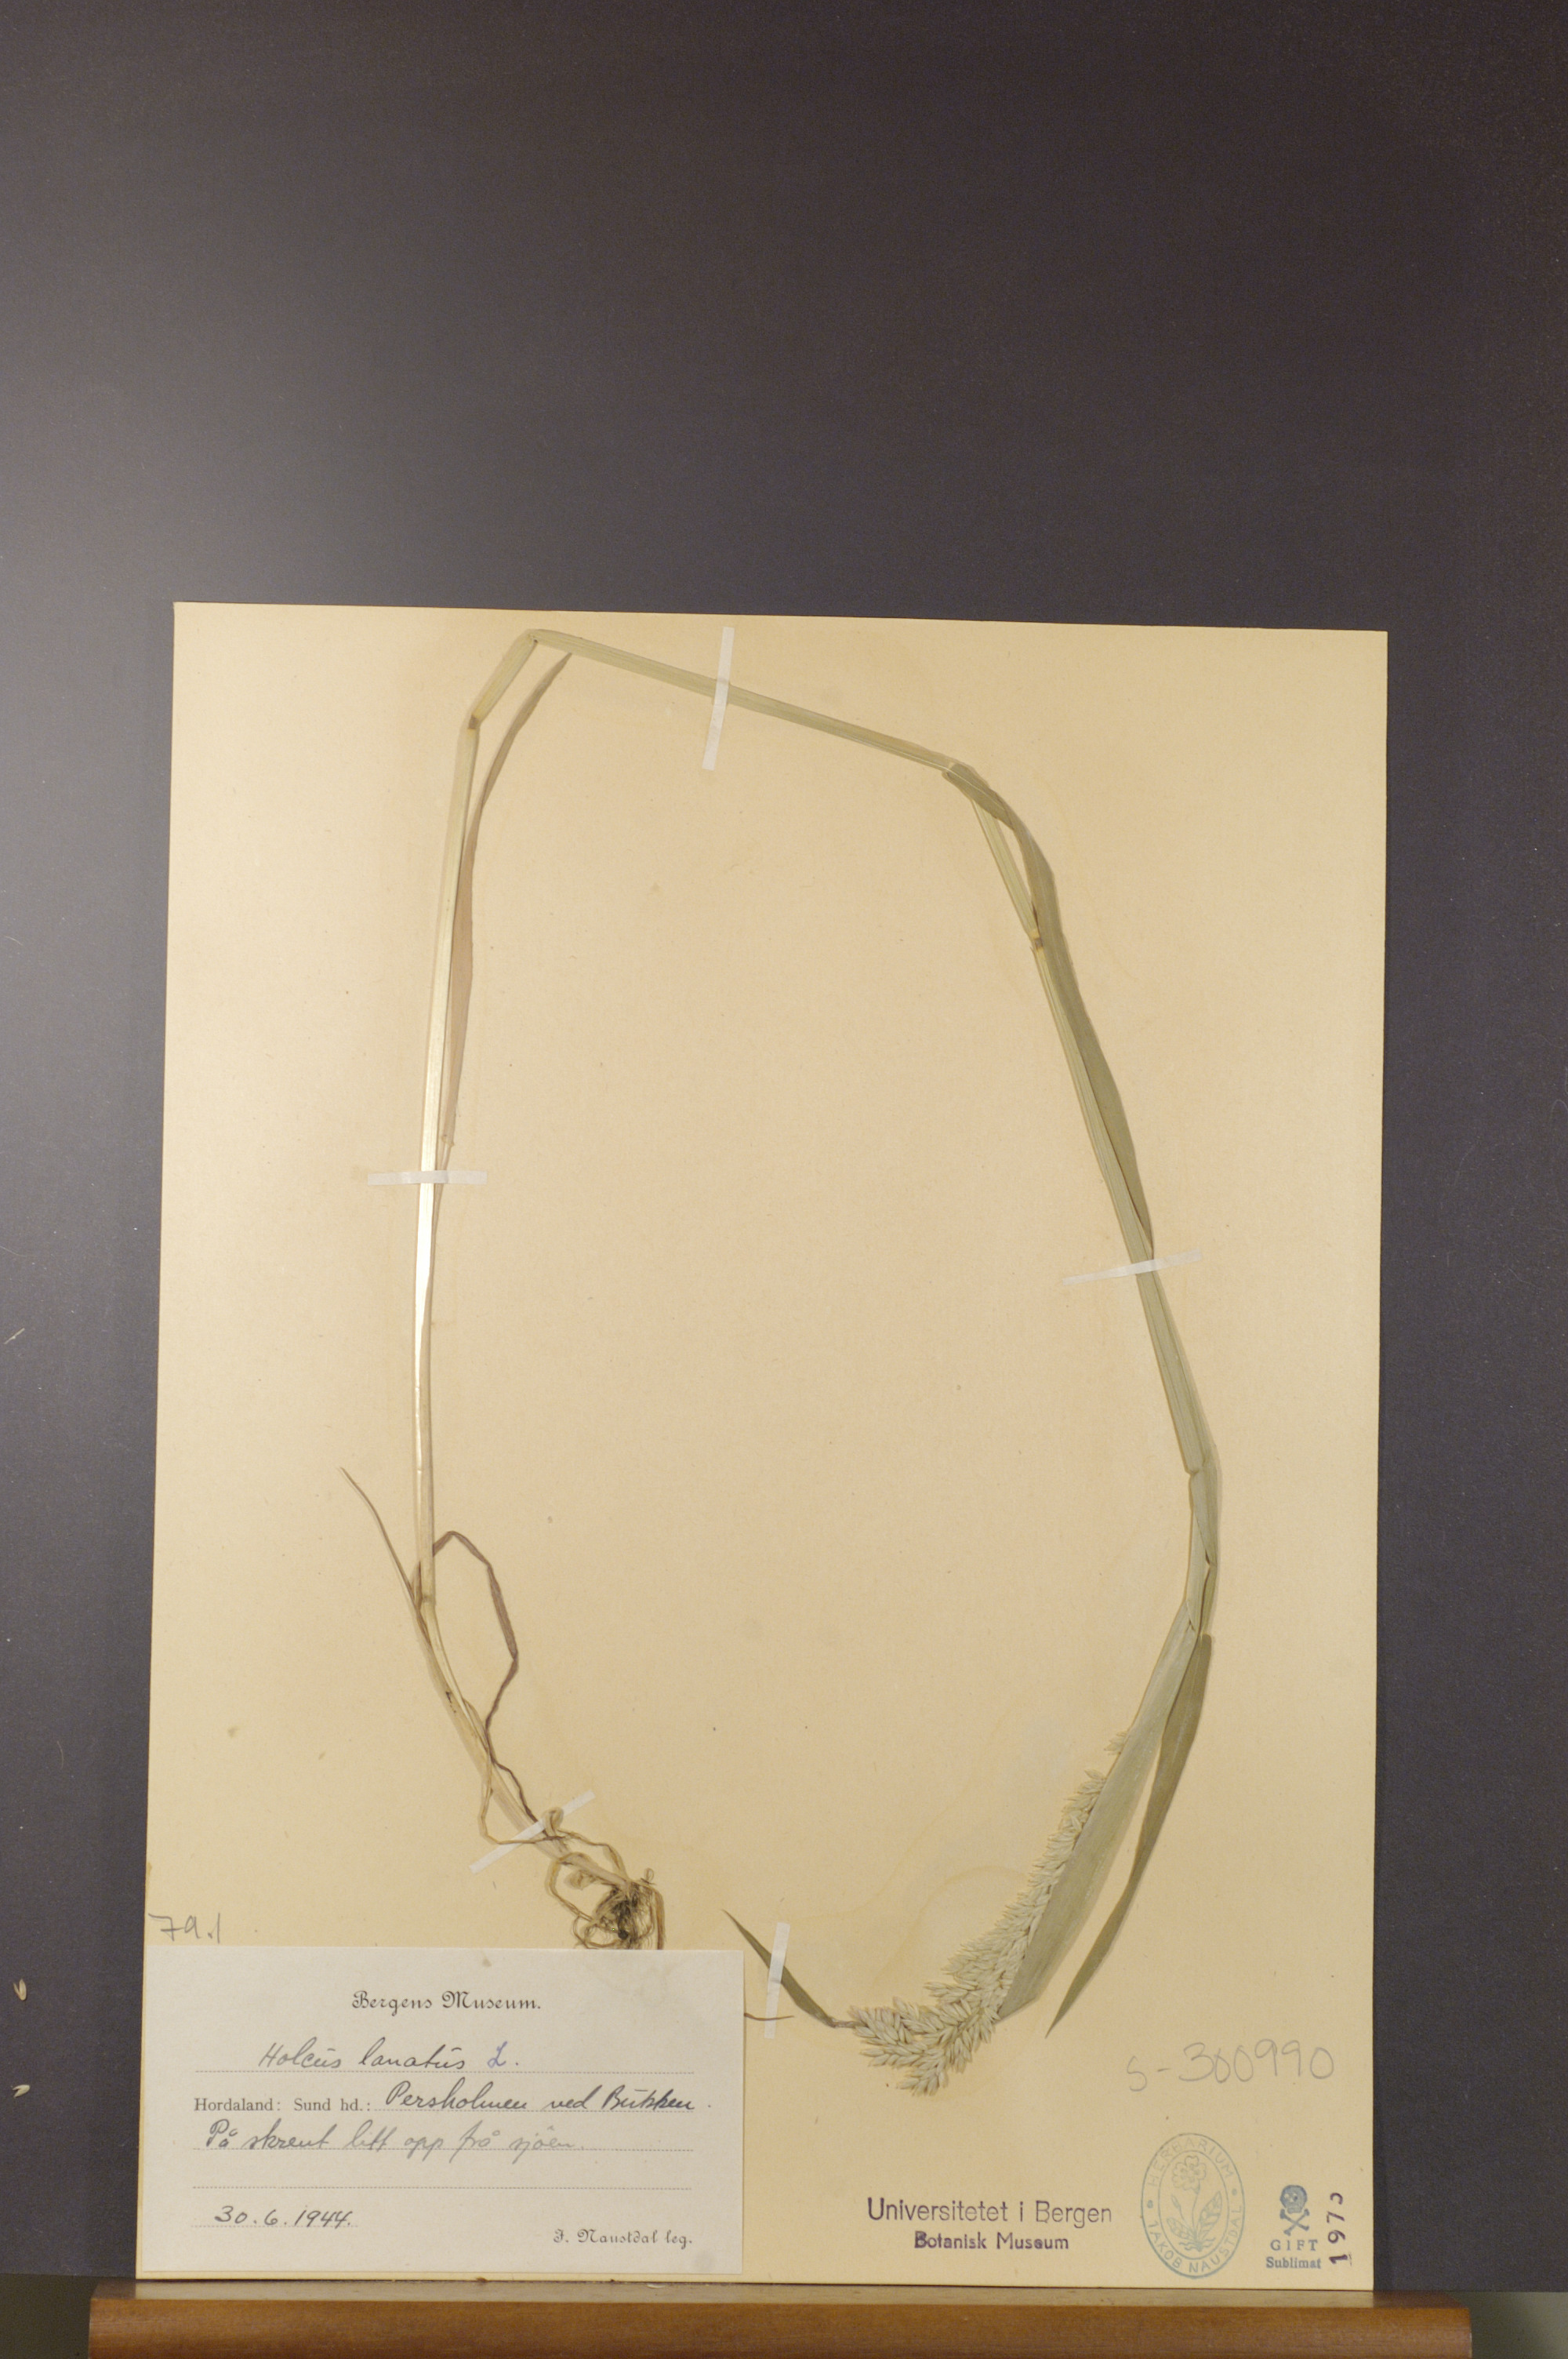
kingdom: Plantae
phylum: Tracheophyta
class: Liliopsida
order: Poales
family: Poaceae
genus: Holcus
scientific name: Holcus lanatus
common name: Yorkshire-fog
